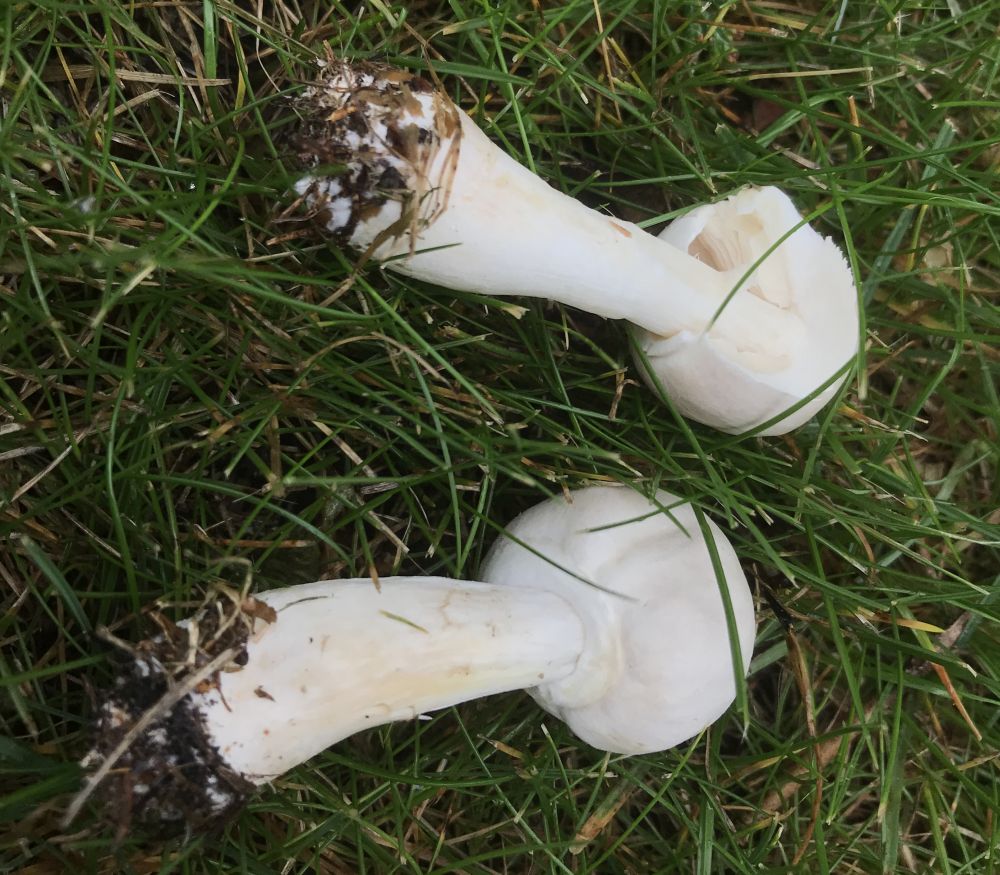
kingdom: Fungi
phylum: Basidiomycota
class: Agaricomycetes
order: Agaricales
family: Agaricaceae
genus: Agaricus
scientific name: Agaricus xanthodermus
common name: karbol-champignon
